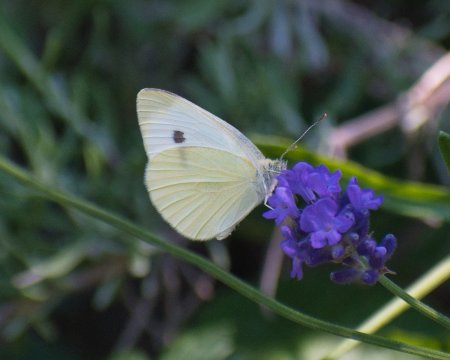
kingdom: Animalia
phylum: Arthropoda
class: Insecta
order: Lepidoptera
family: Pieridae
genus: Pieris
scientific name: Pieris rapae
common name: Cabbage White
